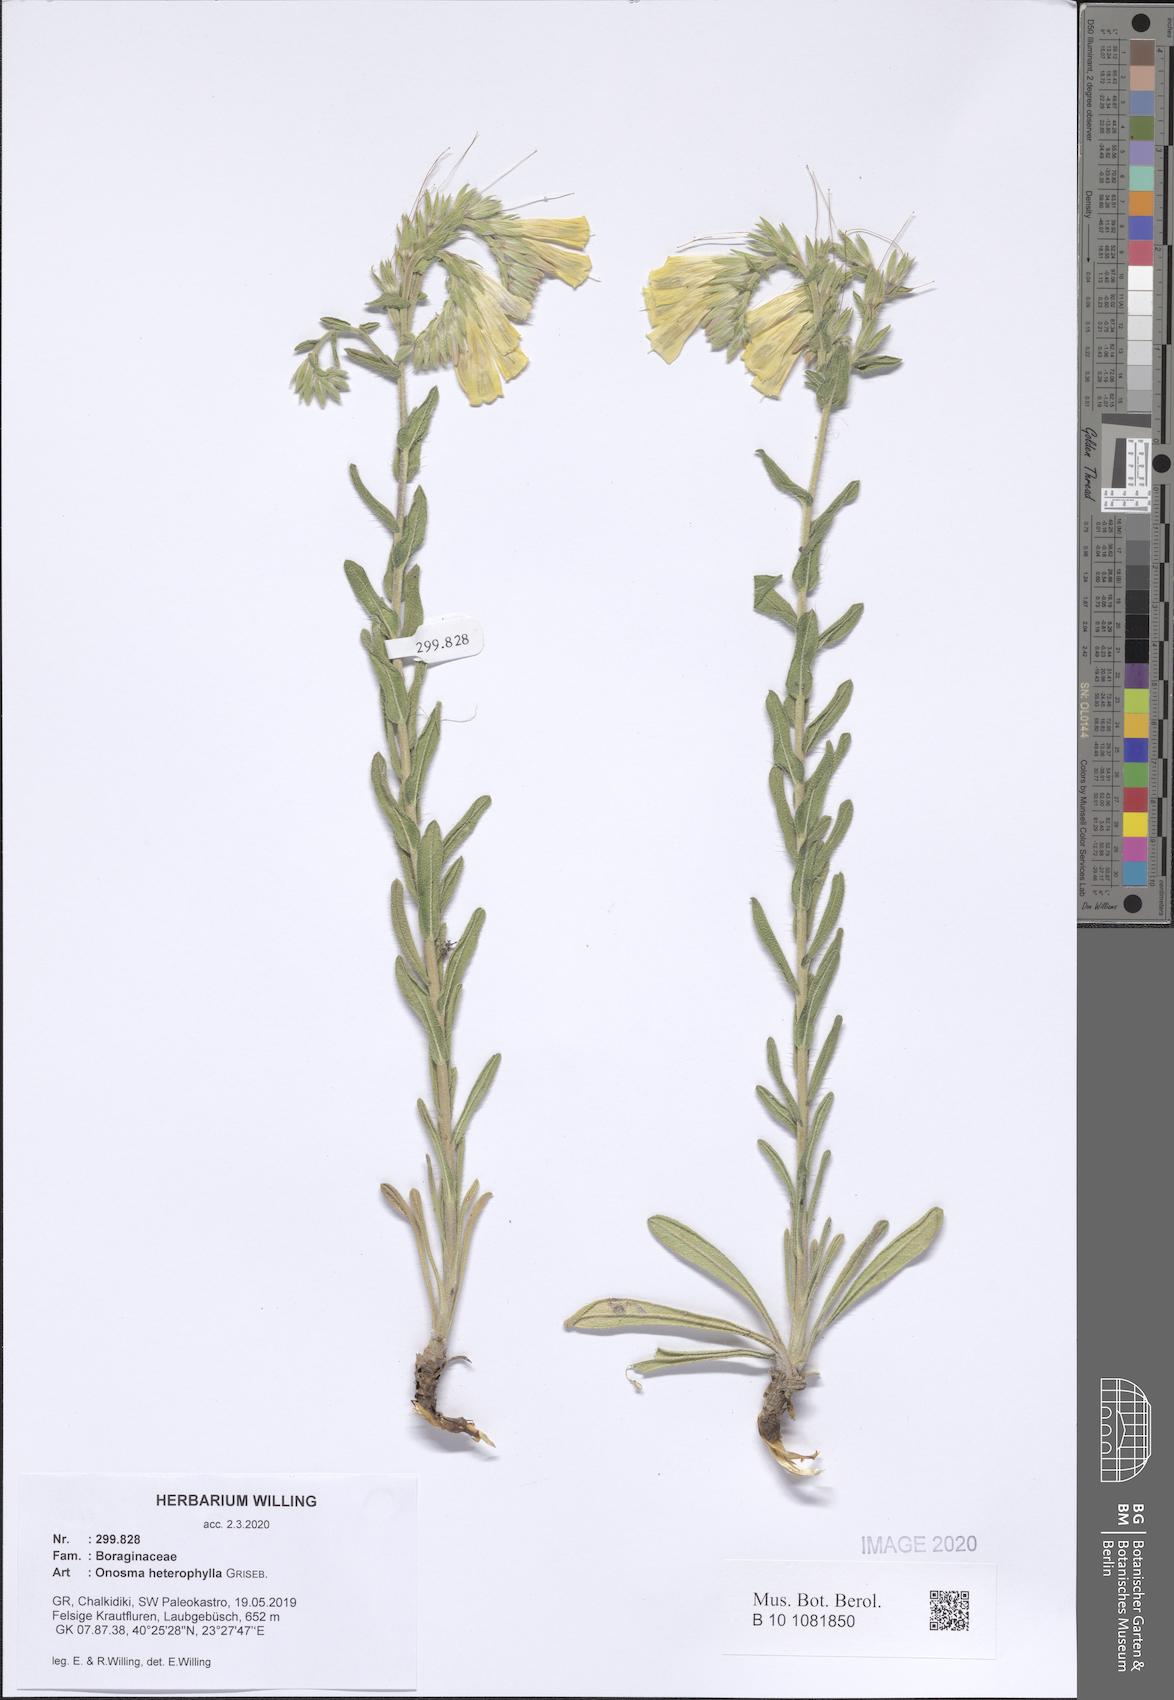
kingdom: Plantae
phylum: Tracheophyta
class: Magnoliopsida
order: Boraginales
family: Boraginaceae
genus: Onosma
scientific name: Onosma heterophylla
